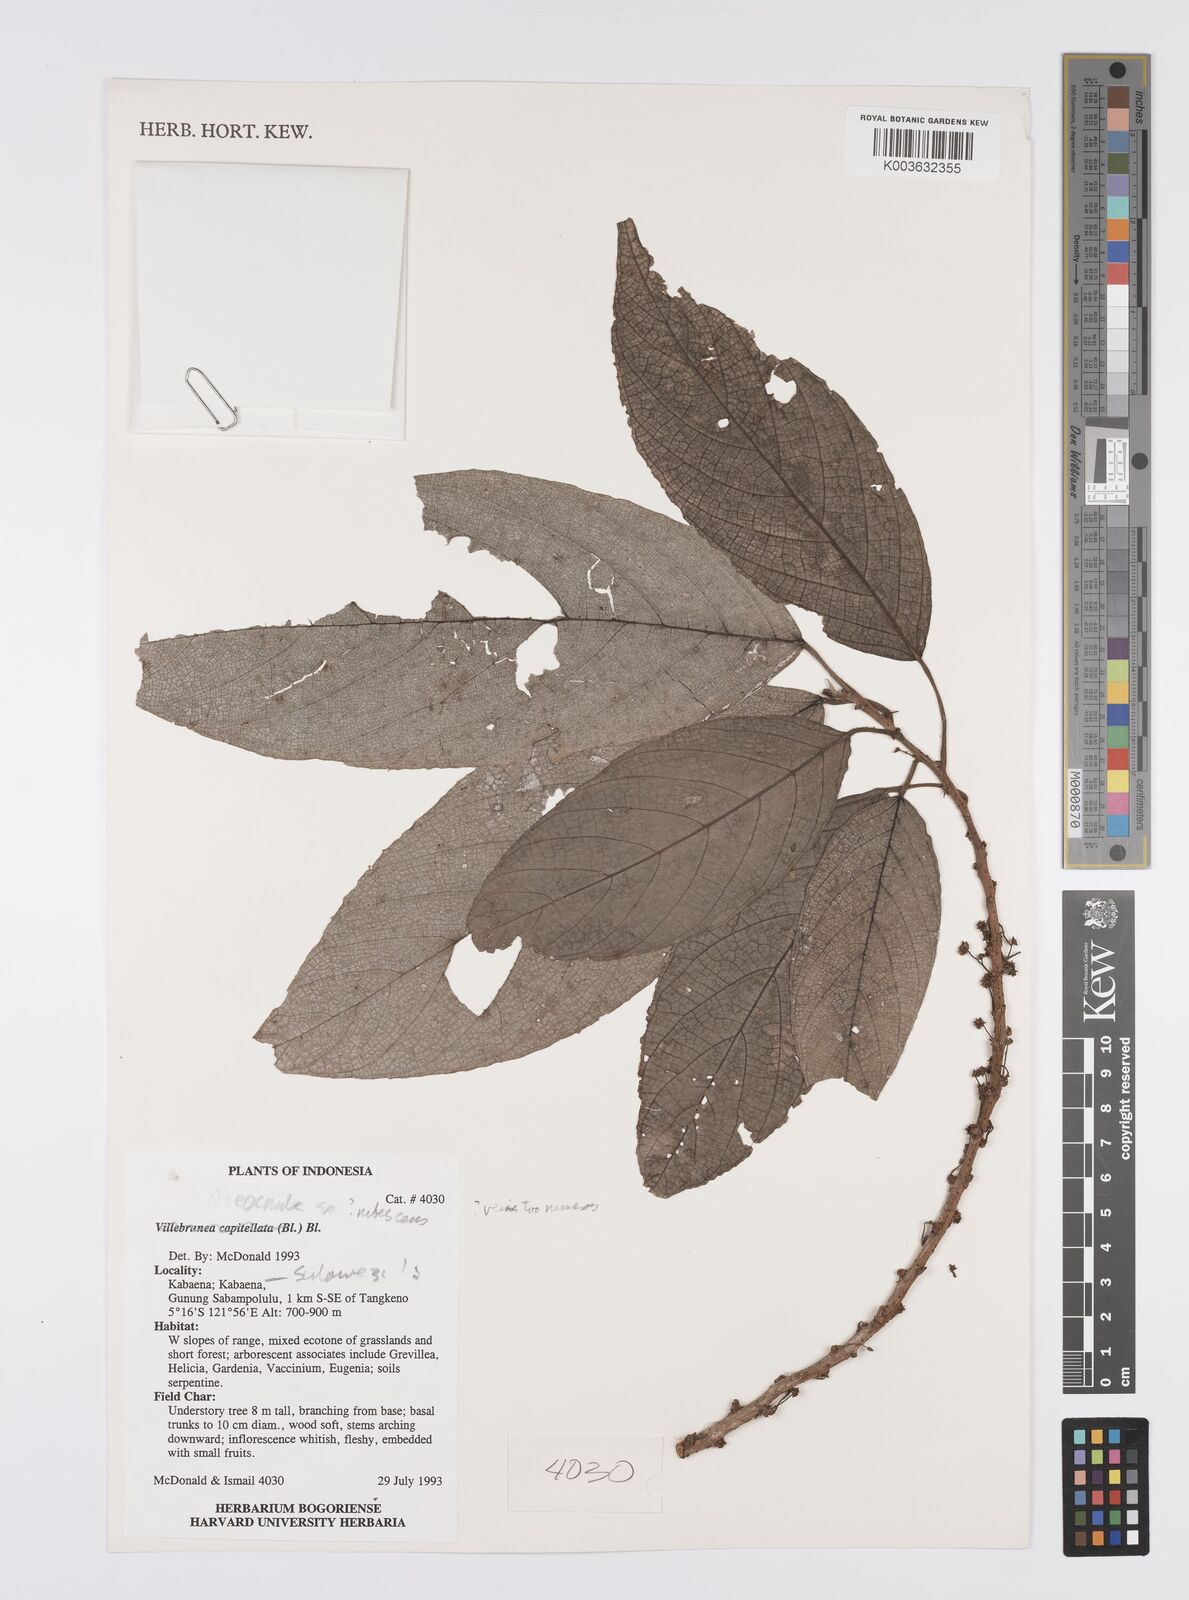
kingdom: Plantae
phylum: Tracheophyta
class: Magnoliopsida
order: Rosales
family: Urticaceae
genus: Oreocnide
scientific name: Oreocnide rubescens
